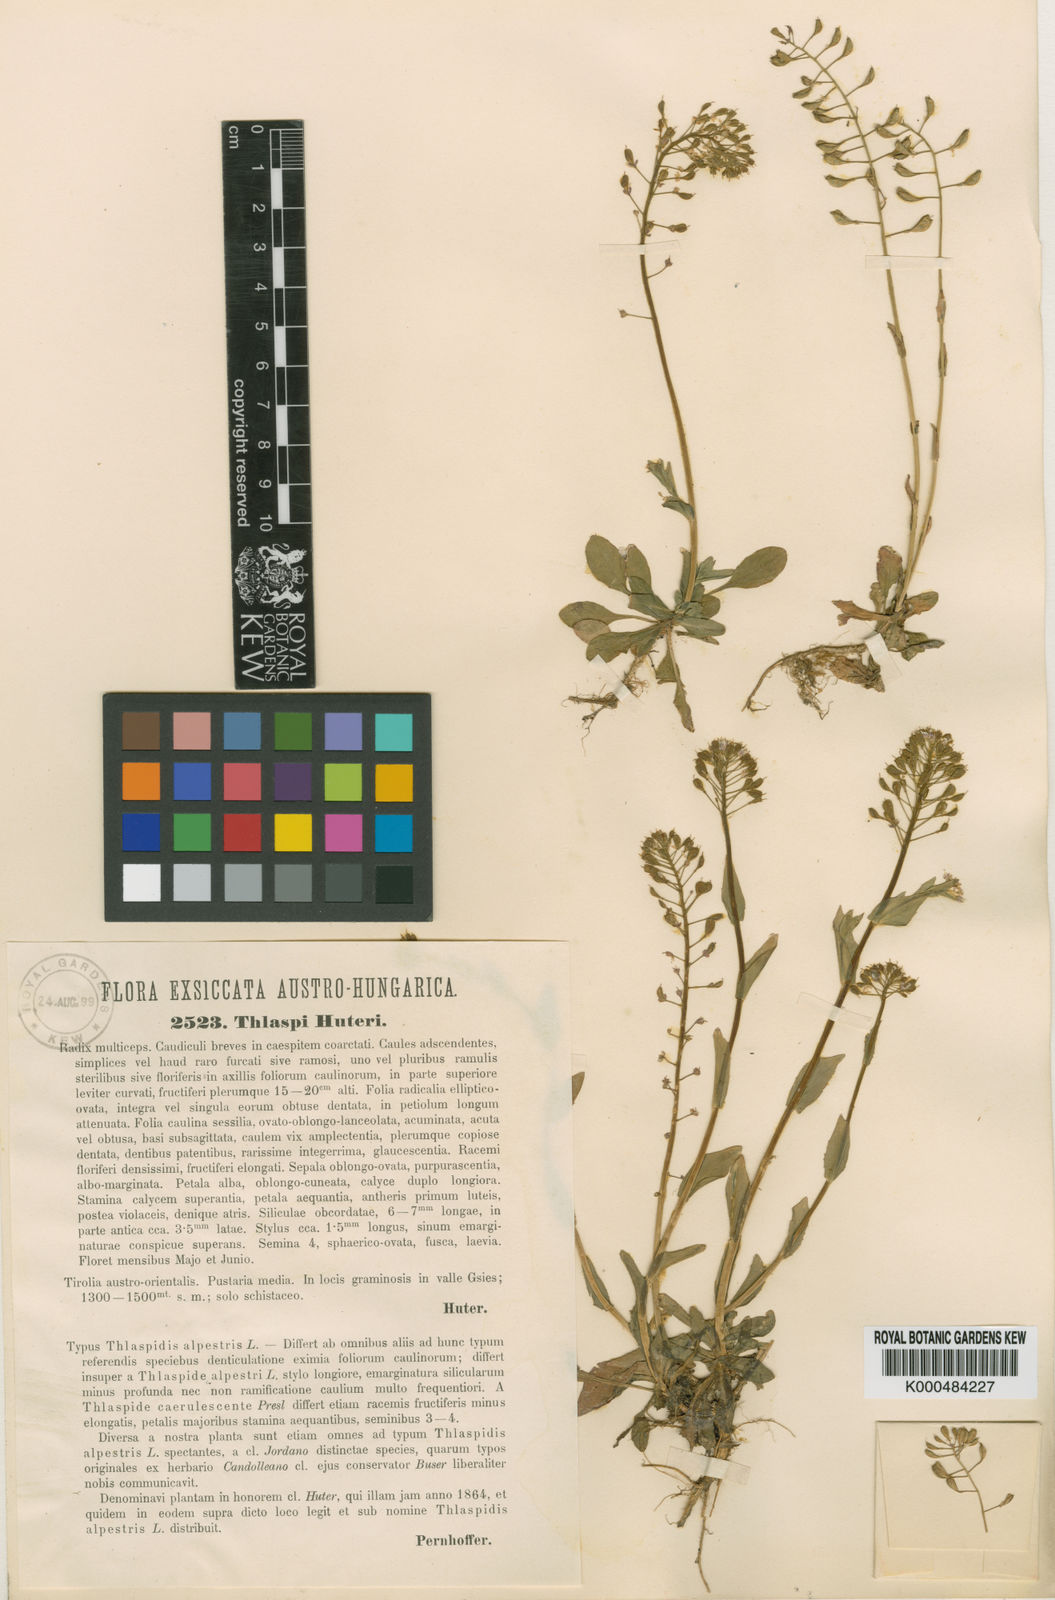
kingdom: Plantae
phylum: Tracheophyta
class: Magnoliopsida
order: Brassicales
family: Brassicaceae
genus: Noccaea
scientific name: Noccaea alpestris
